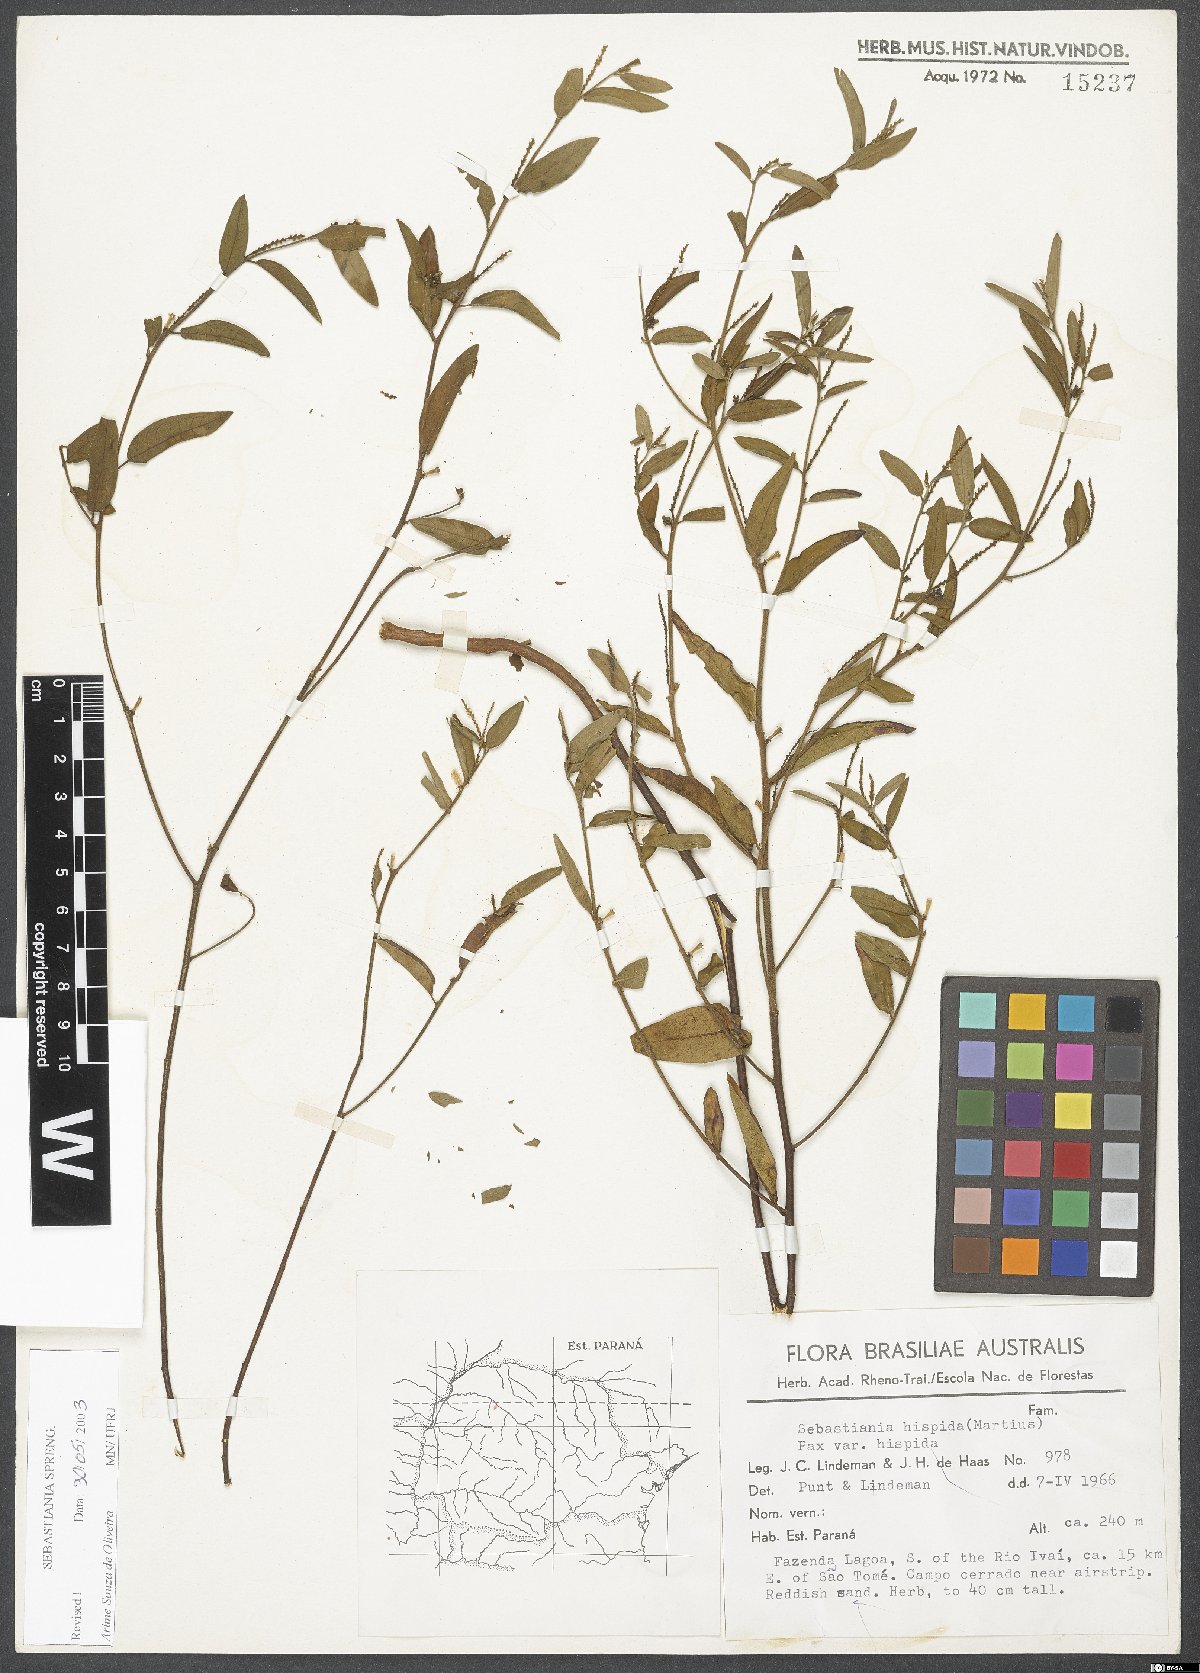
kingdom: Plantae
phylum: Tracheophyta
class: Magnoliopsida
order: Malpighiales
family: Euphorbiaceae
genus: Microstachys
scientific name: Microstachys hispida
